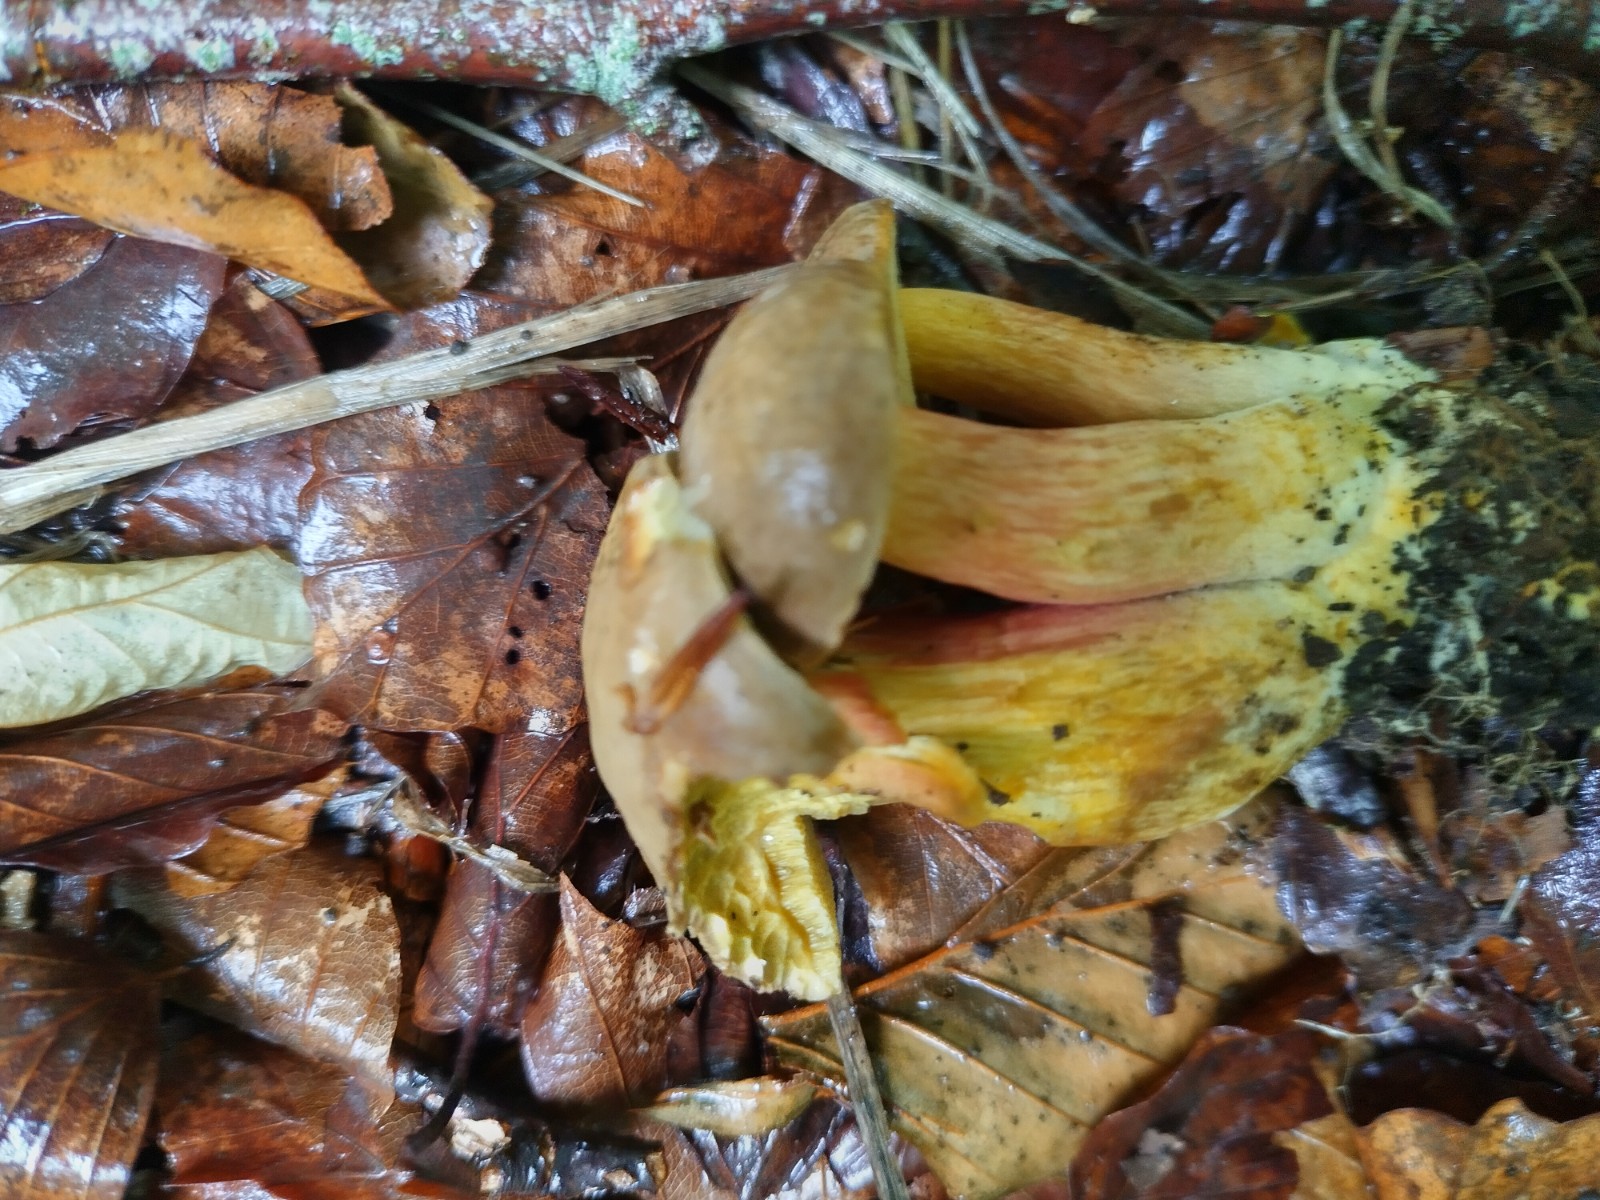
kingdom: Fungi
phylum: Basidiomycota
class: Agaricomycetes
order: Boletales
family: Boletaceae
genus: Xerocomellus
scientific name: Xerocomellus chrysenteron
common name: rødsprukken rørhat
